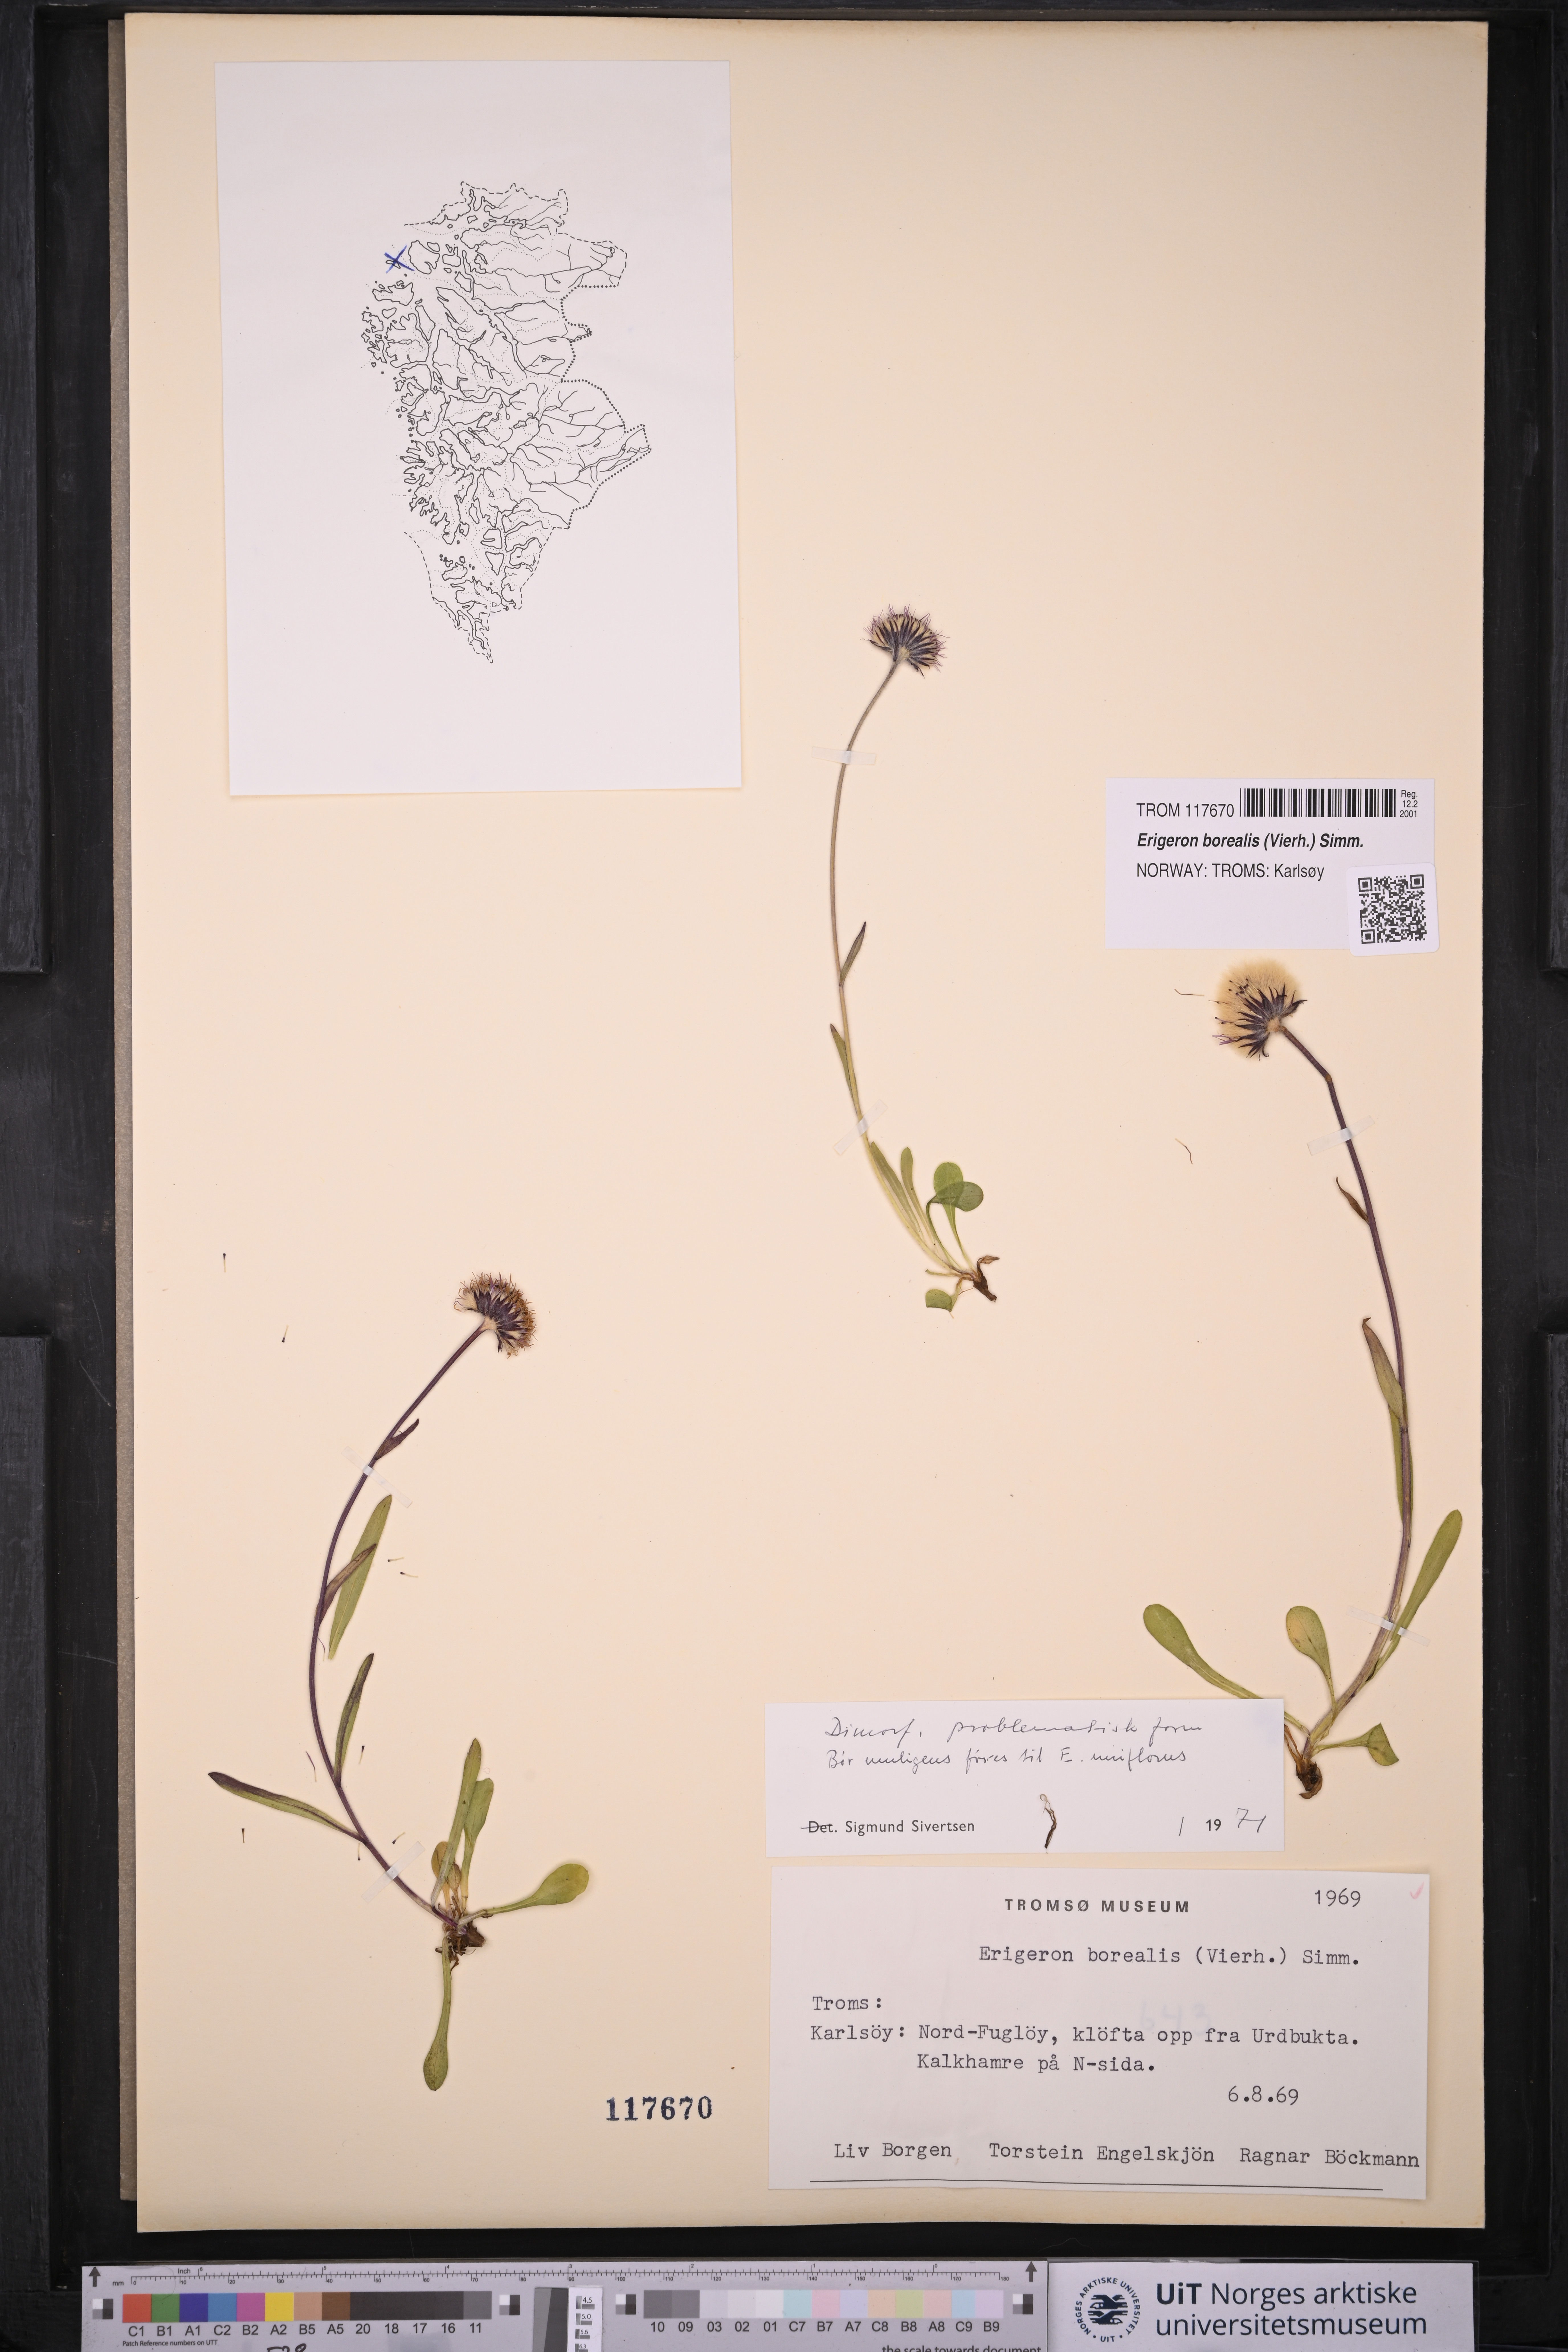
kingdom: Plantae
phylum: Tracheophyta
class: Magnoliopsida
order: Asterales
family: Asteraceae
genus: Erigeron
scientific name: Erigeron borealis
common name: Alpine fleabane
